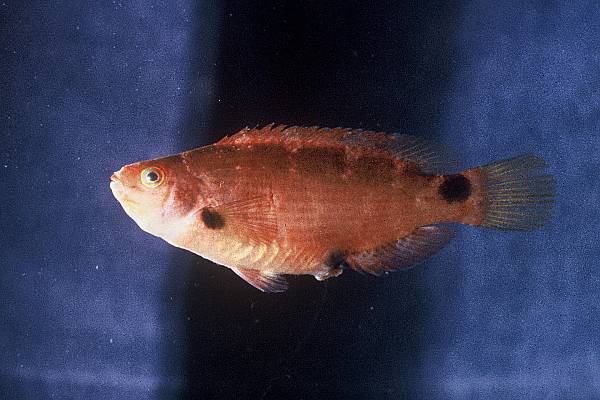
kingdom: Animalia
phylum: Chordata
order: Perciformes
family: Labridae
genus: Symphodus
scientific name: Symphodus mediterraneus
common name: Axillary wrasse
